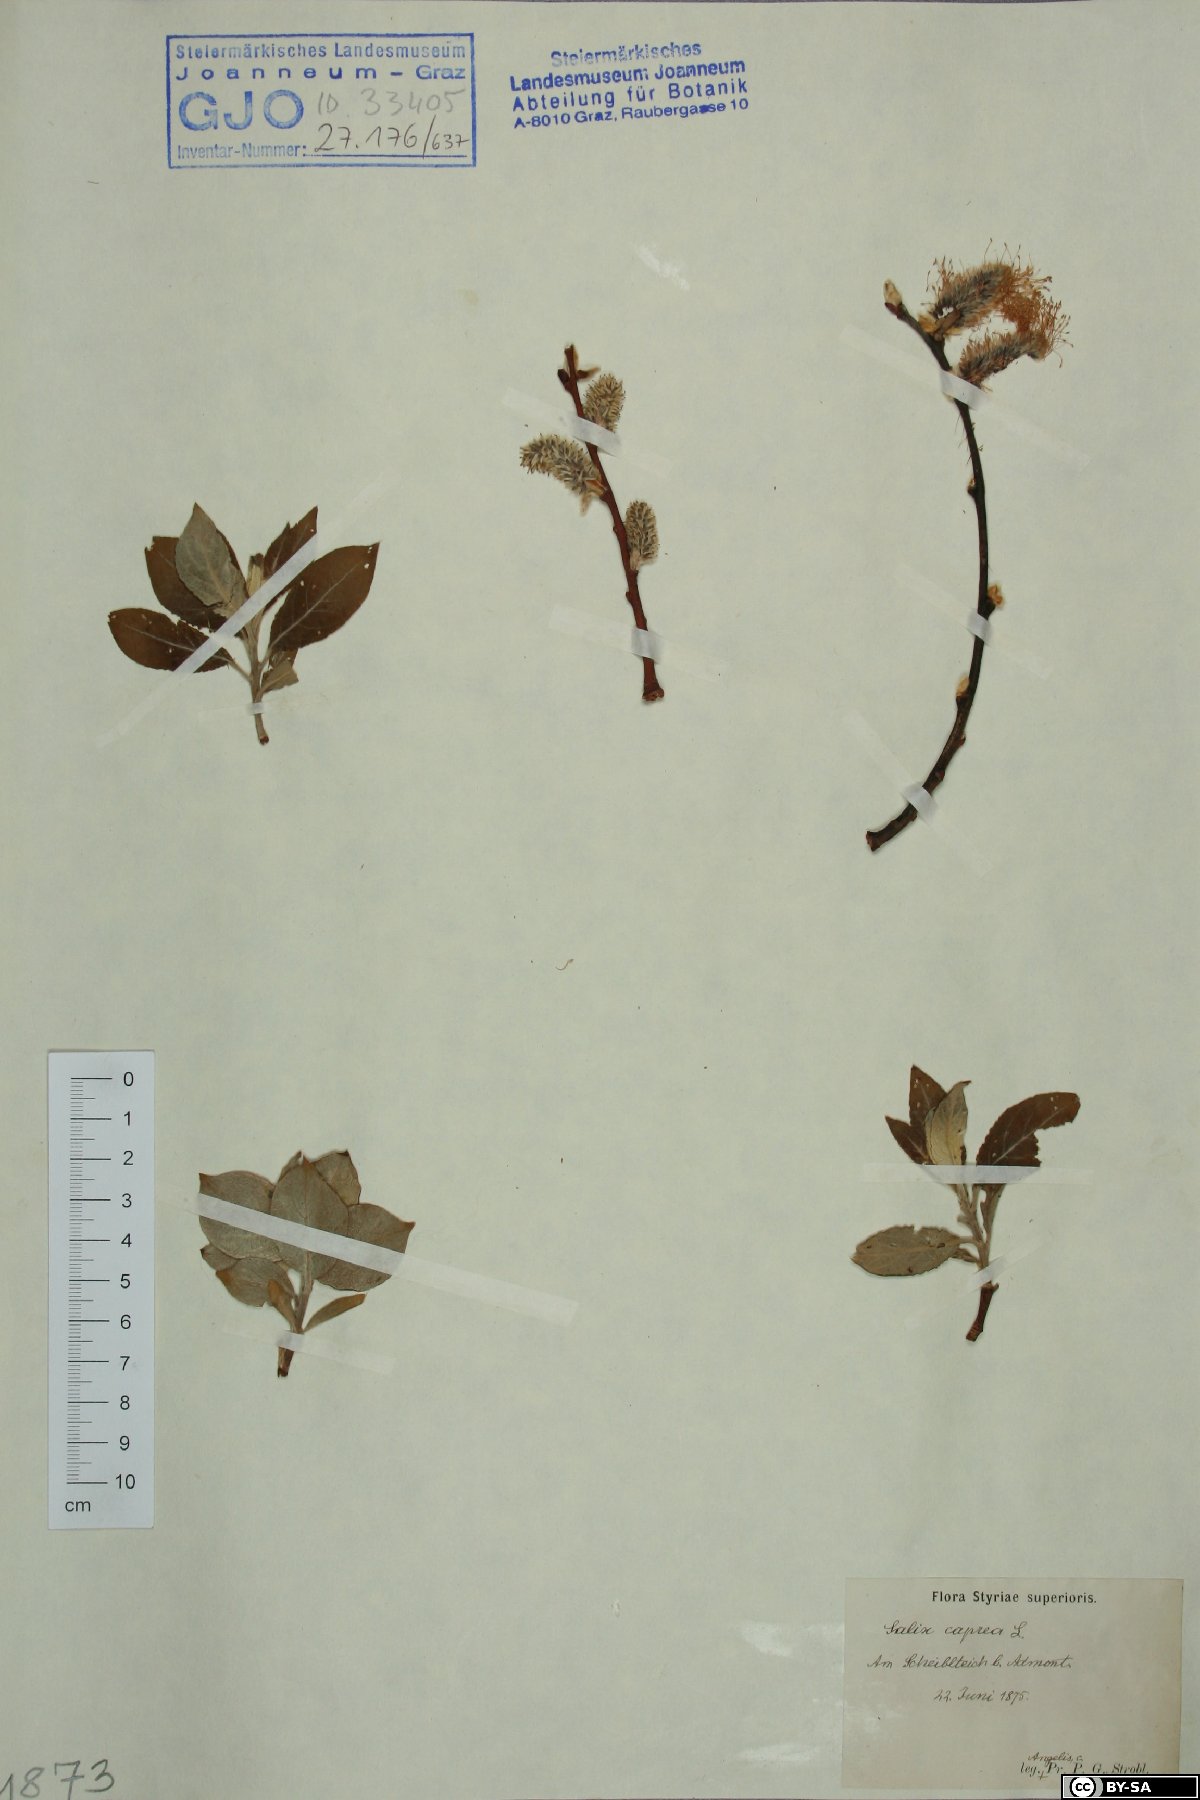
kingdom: Plantae
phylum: Tracheophyta
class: Magnoliopsida
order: Malpighiales
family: Salicaceae
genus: Salix
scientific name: Salix caprea
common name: Goat willow
